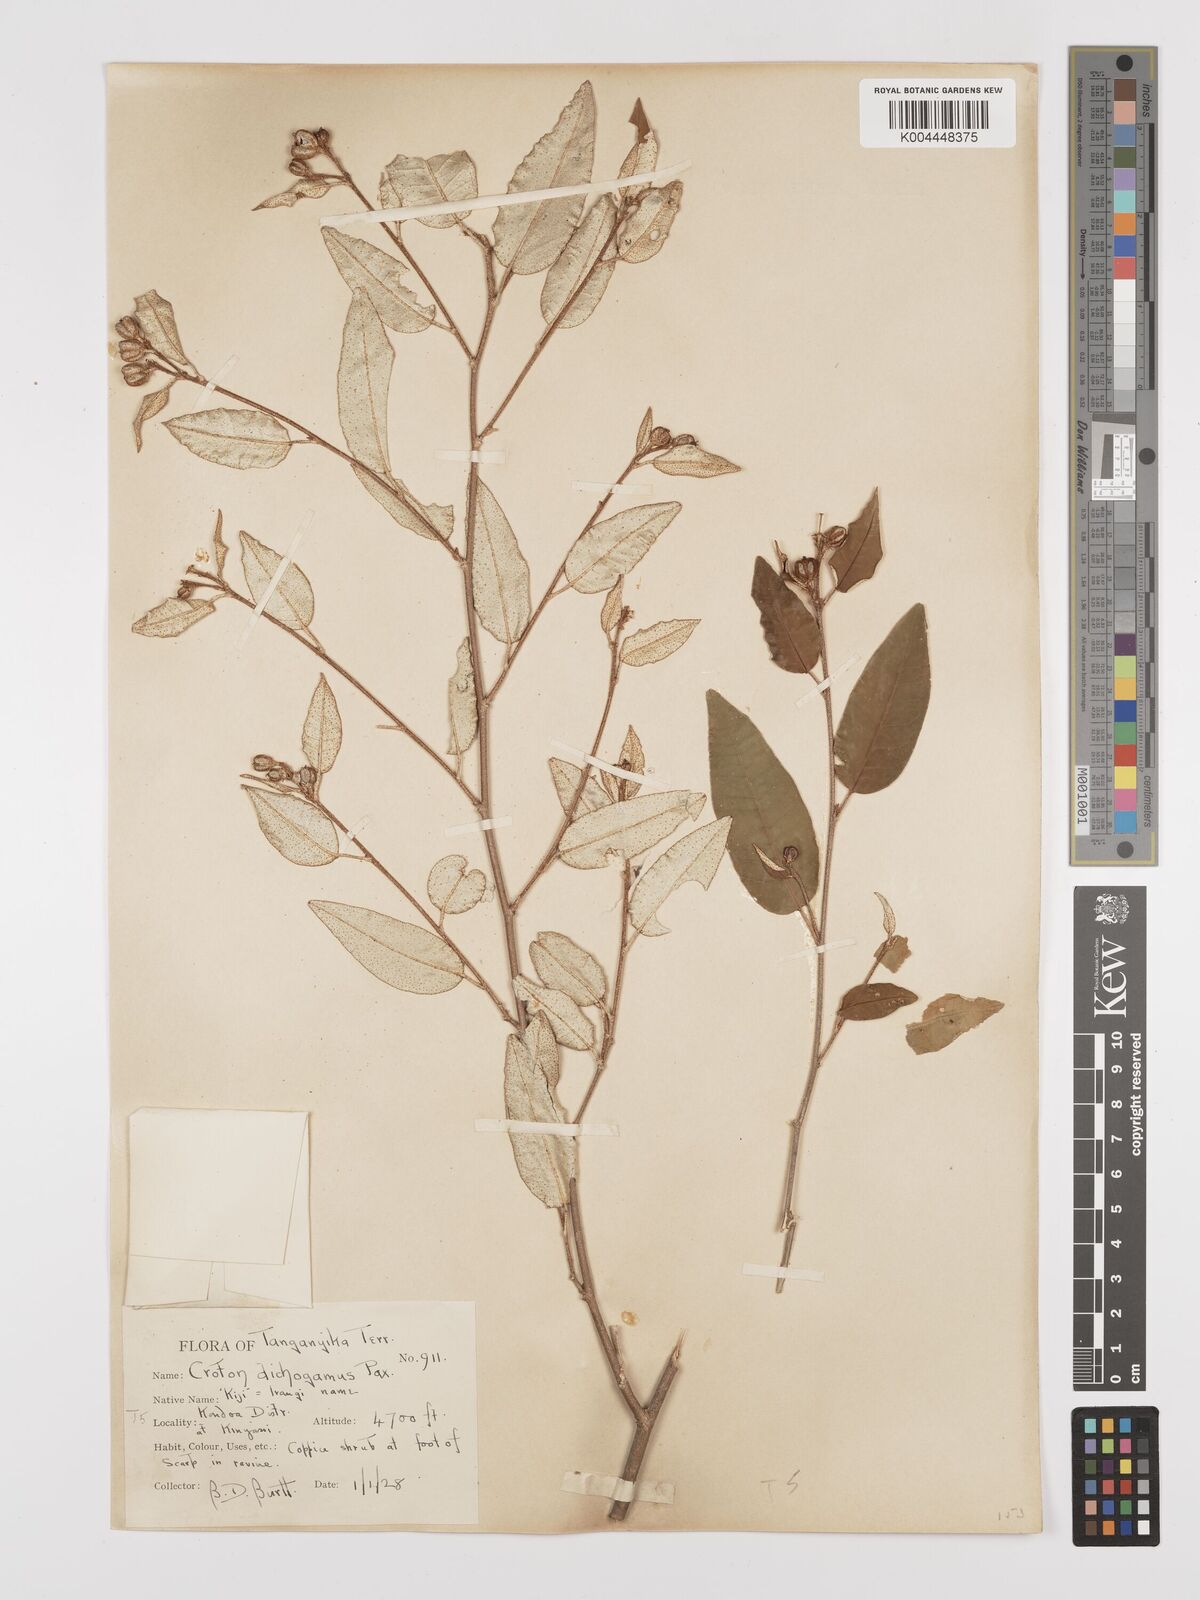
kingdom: Plantae
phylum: Tracheophyta
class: Magnoliopsida
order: Malpighiales
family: Euphorbiaceae
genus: Croton
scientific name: Croton dichogamus
